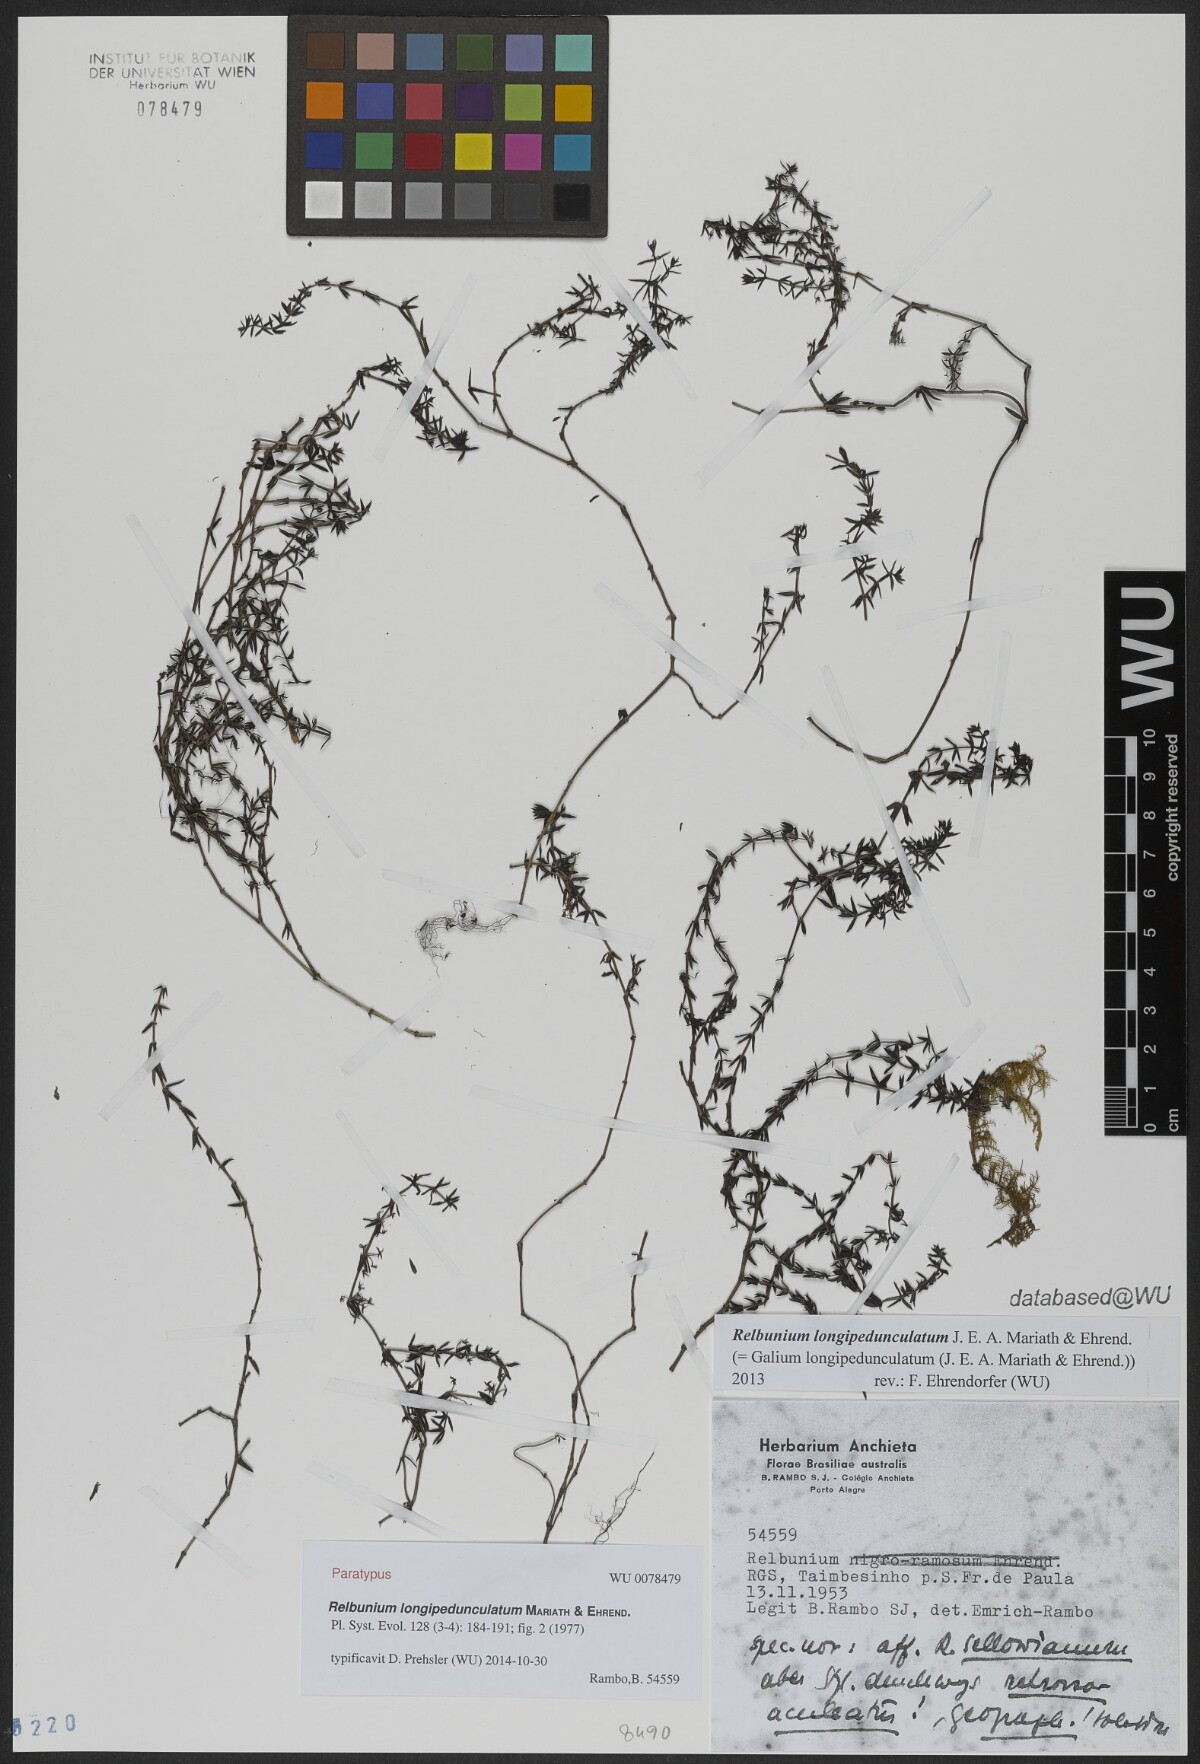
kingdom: Plantae
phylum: Tracheophyta
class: Magnoliopsida
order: Gentianales
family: Rubiaceae
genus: Galium
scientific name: Galium longipedunculatum
